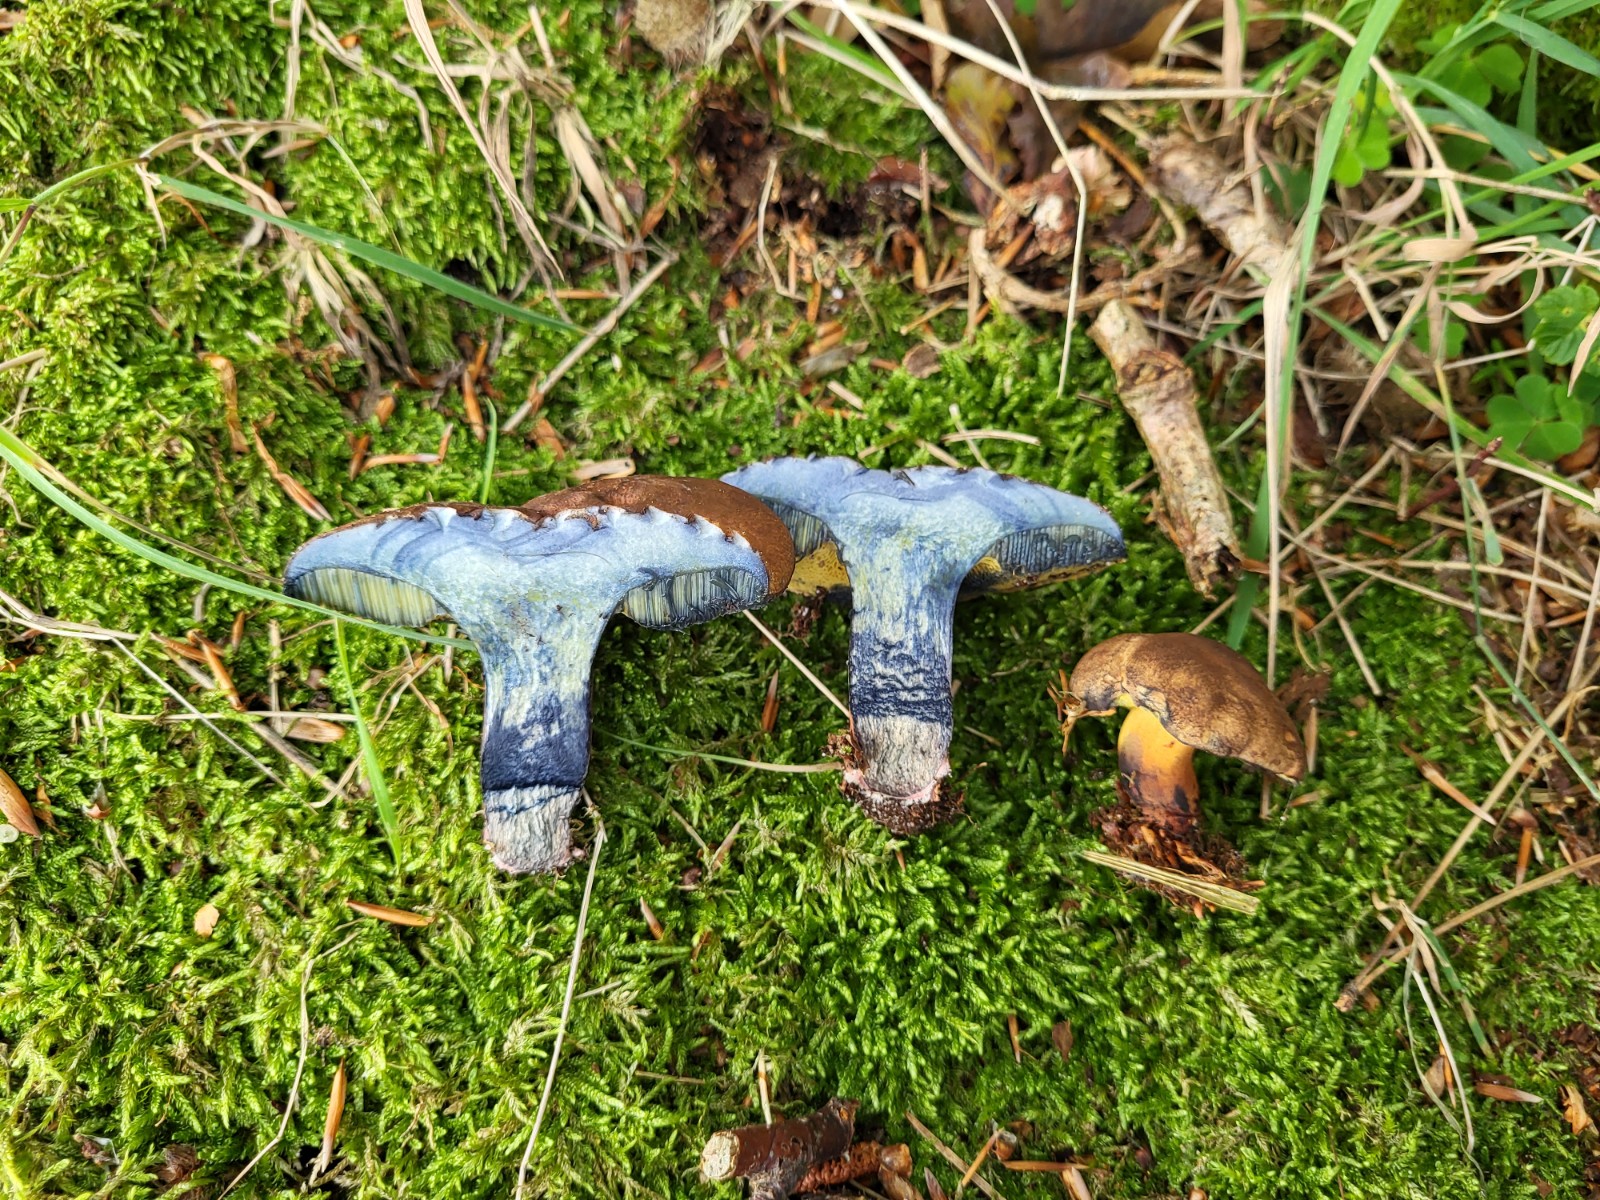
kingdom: Fungi
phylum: Basidiomycota
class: Agaricomycetes
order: Boletales
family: Boletaceae
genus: Cyanoboletus
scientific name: Cyanoboletus pulverulentus
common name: sortblånende rørhat
